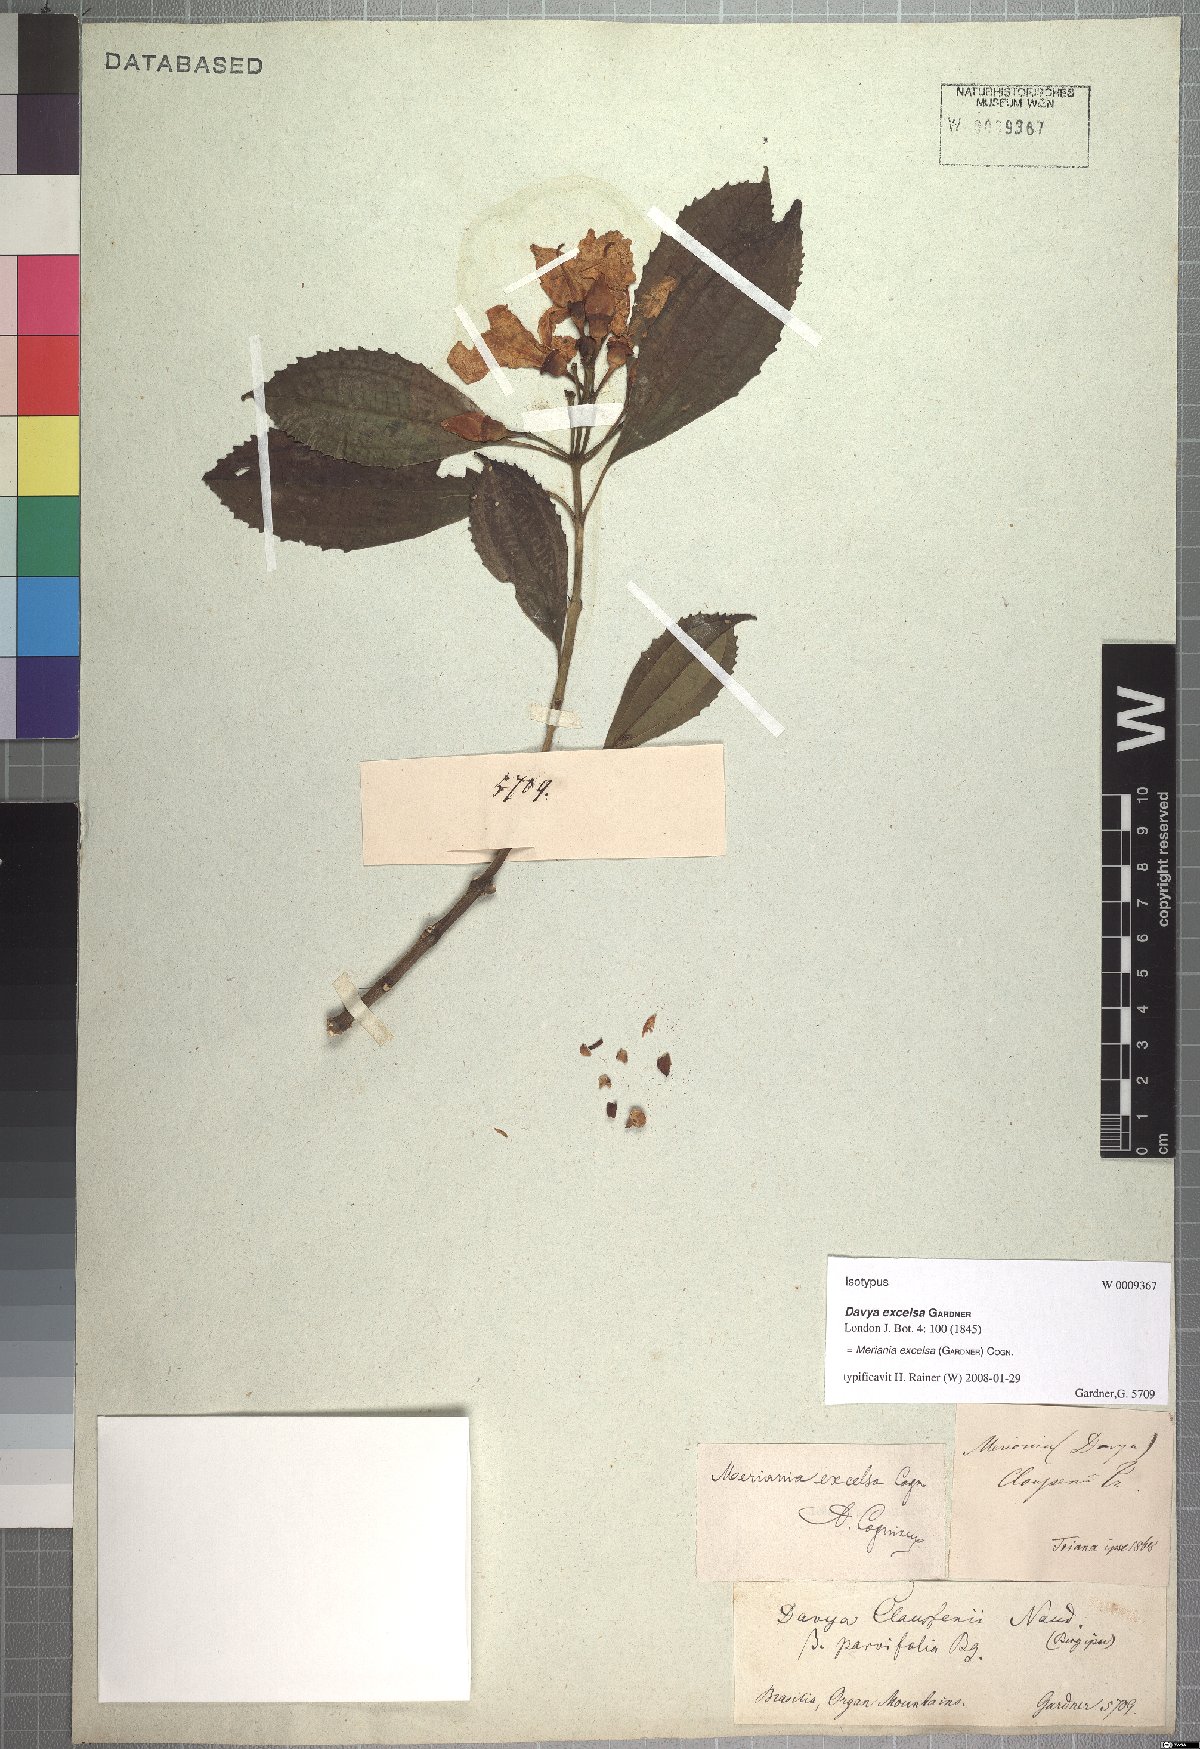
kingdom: Plantae
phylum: Tracheophyta
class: Magnoliopsida
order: Myrtales
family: Melastomataceae
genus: Meriania
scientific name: Meriania excelsa
